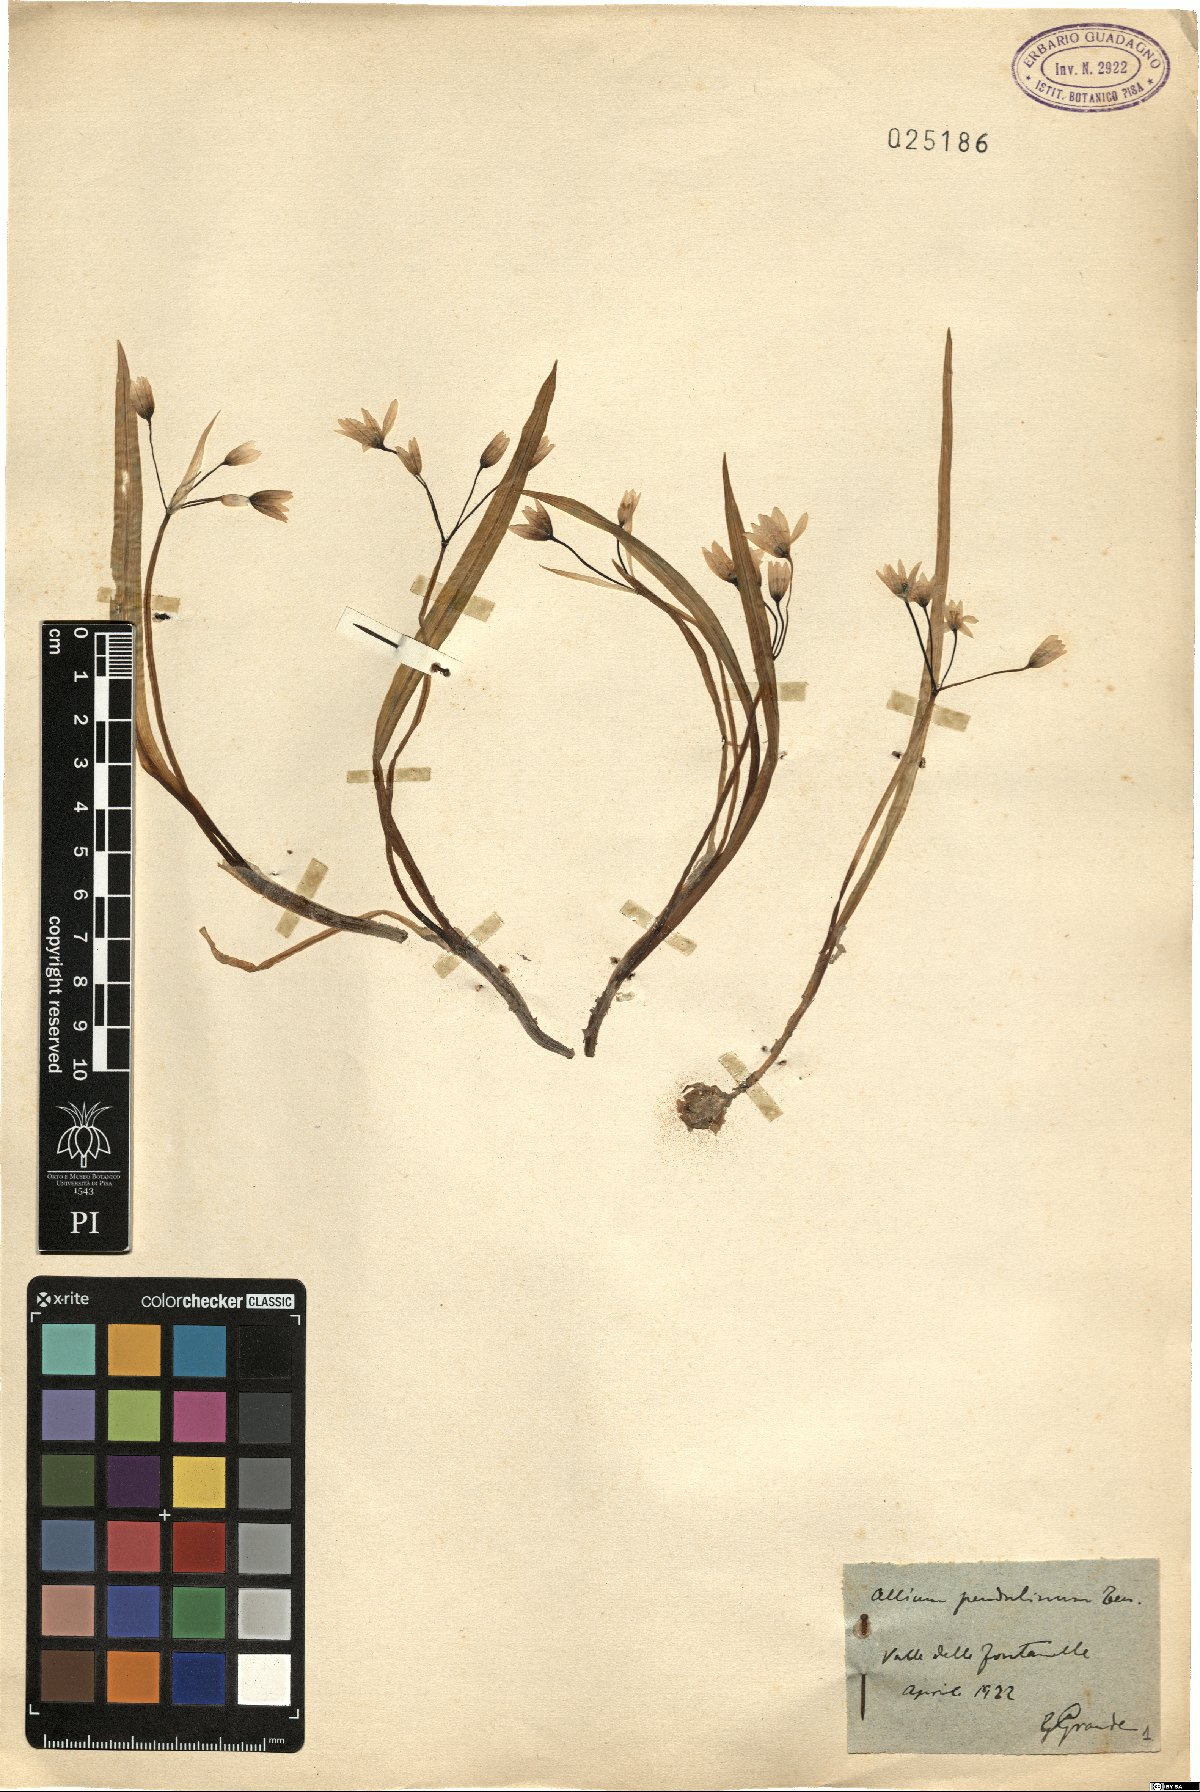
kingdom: Plantae
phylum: Tracheophyta
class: Liliopsida
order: Asparagales
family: Amaryllidaceae
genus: Allium
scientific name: Allium pendulinum
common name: Italian garlic
